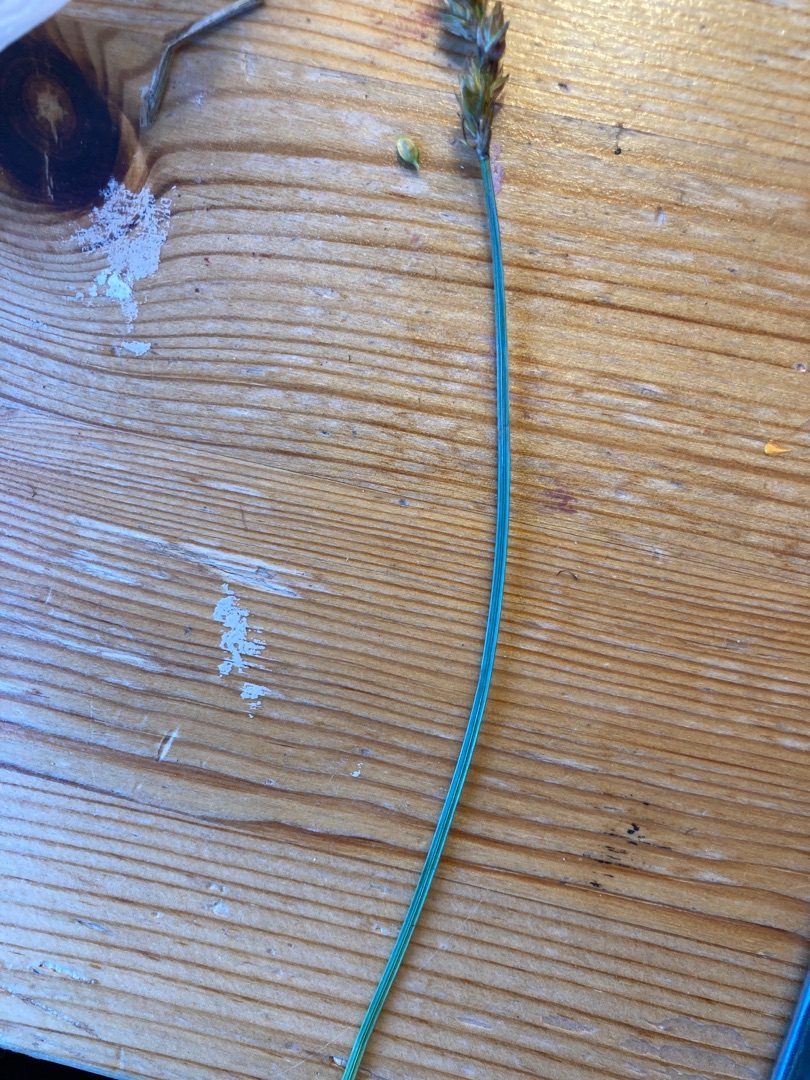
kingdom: Plantae
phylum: Tracheophyta
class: Liliopsida
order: Poales
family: Cyperaceae
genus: Carex
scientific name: Carex spicata
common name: Spidskapslet star
